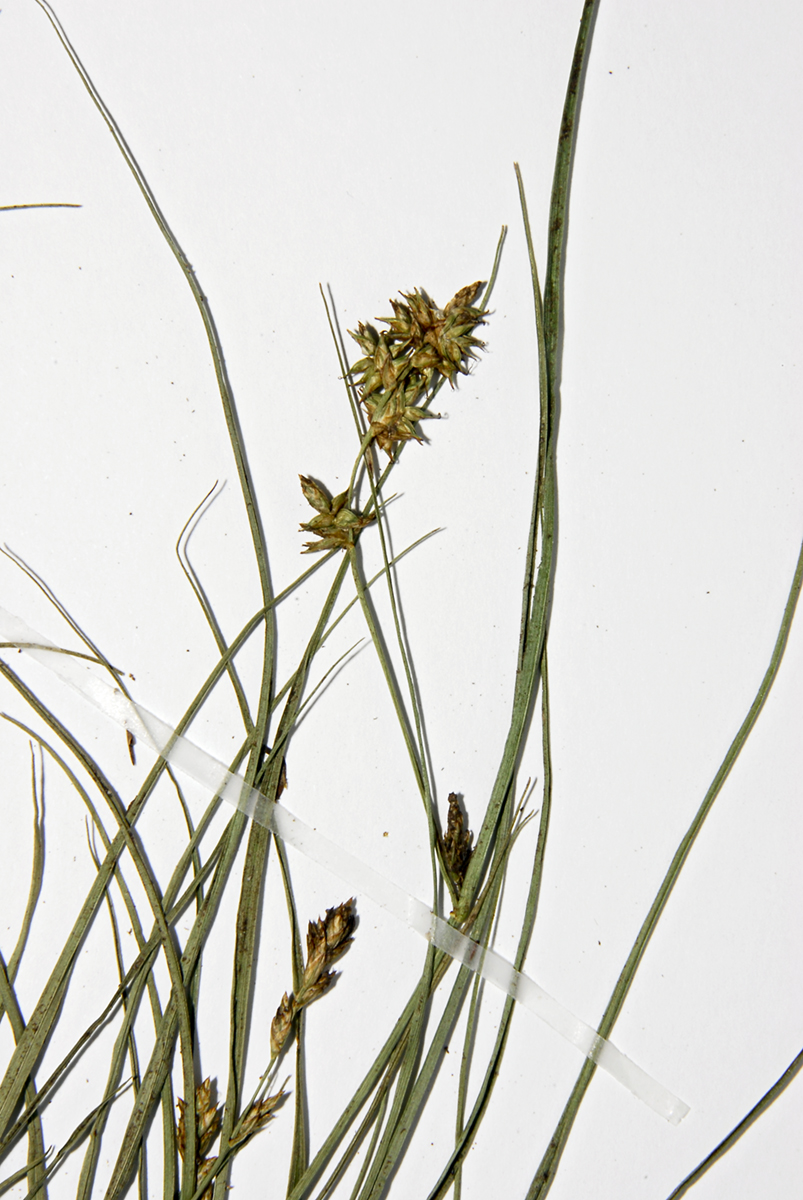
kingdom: Plantae
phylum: Tracheophyta
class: Liliopsida
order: Poales
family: Cyperaceae
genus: Carex
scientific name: Carex echinata
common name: Star sedge
